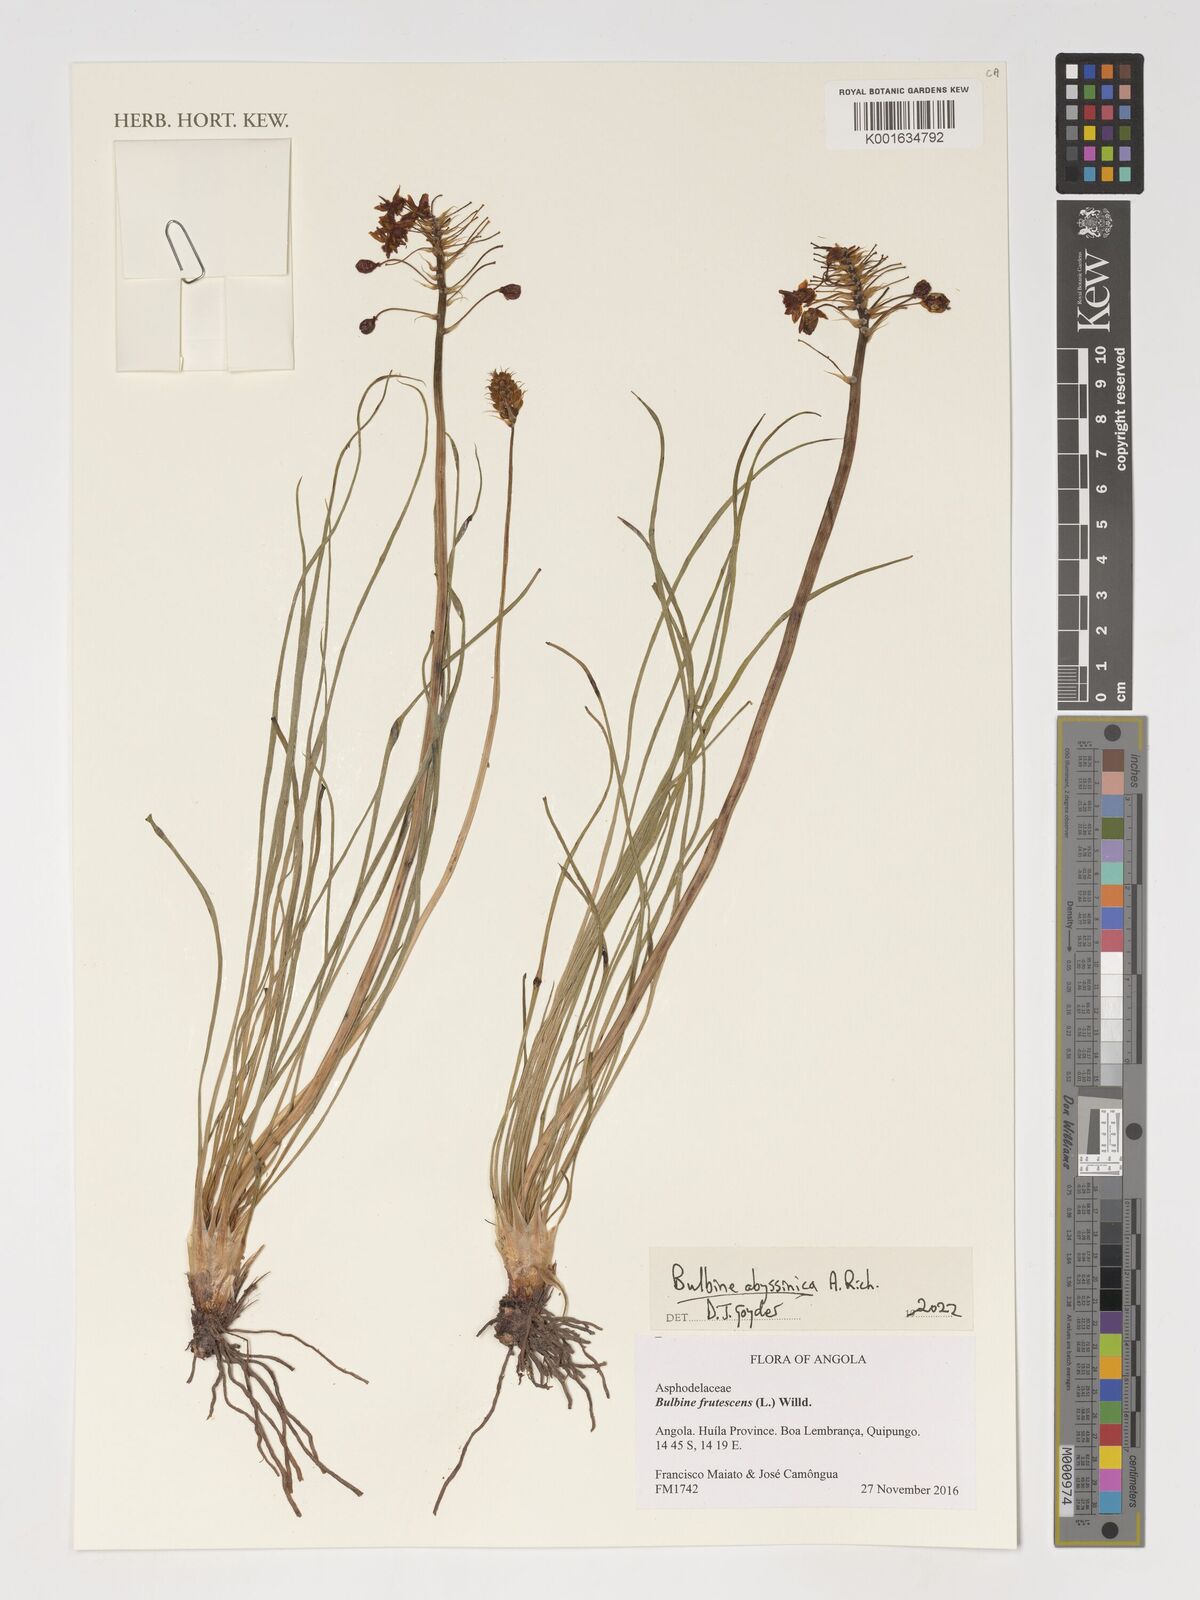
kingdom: Plantae
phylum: Tracheophyta
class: Liliopsida
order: Asparagales
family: Asphodelaceae
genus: Bulbine
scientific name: Bulbine abyssinica
